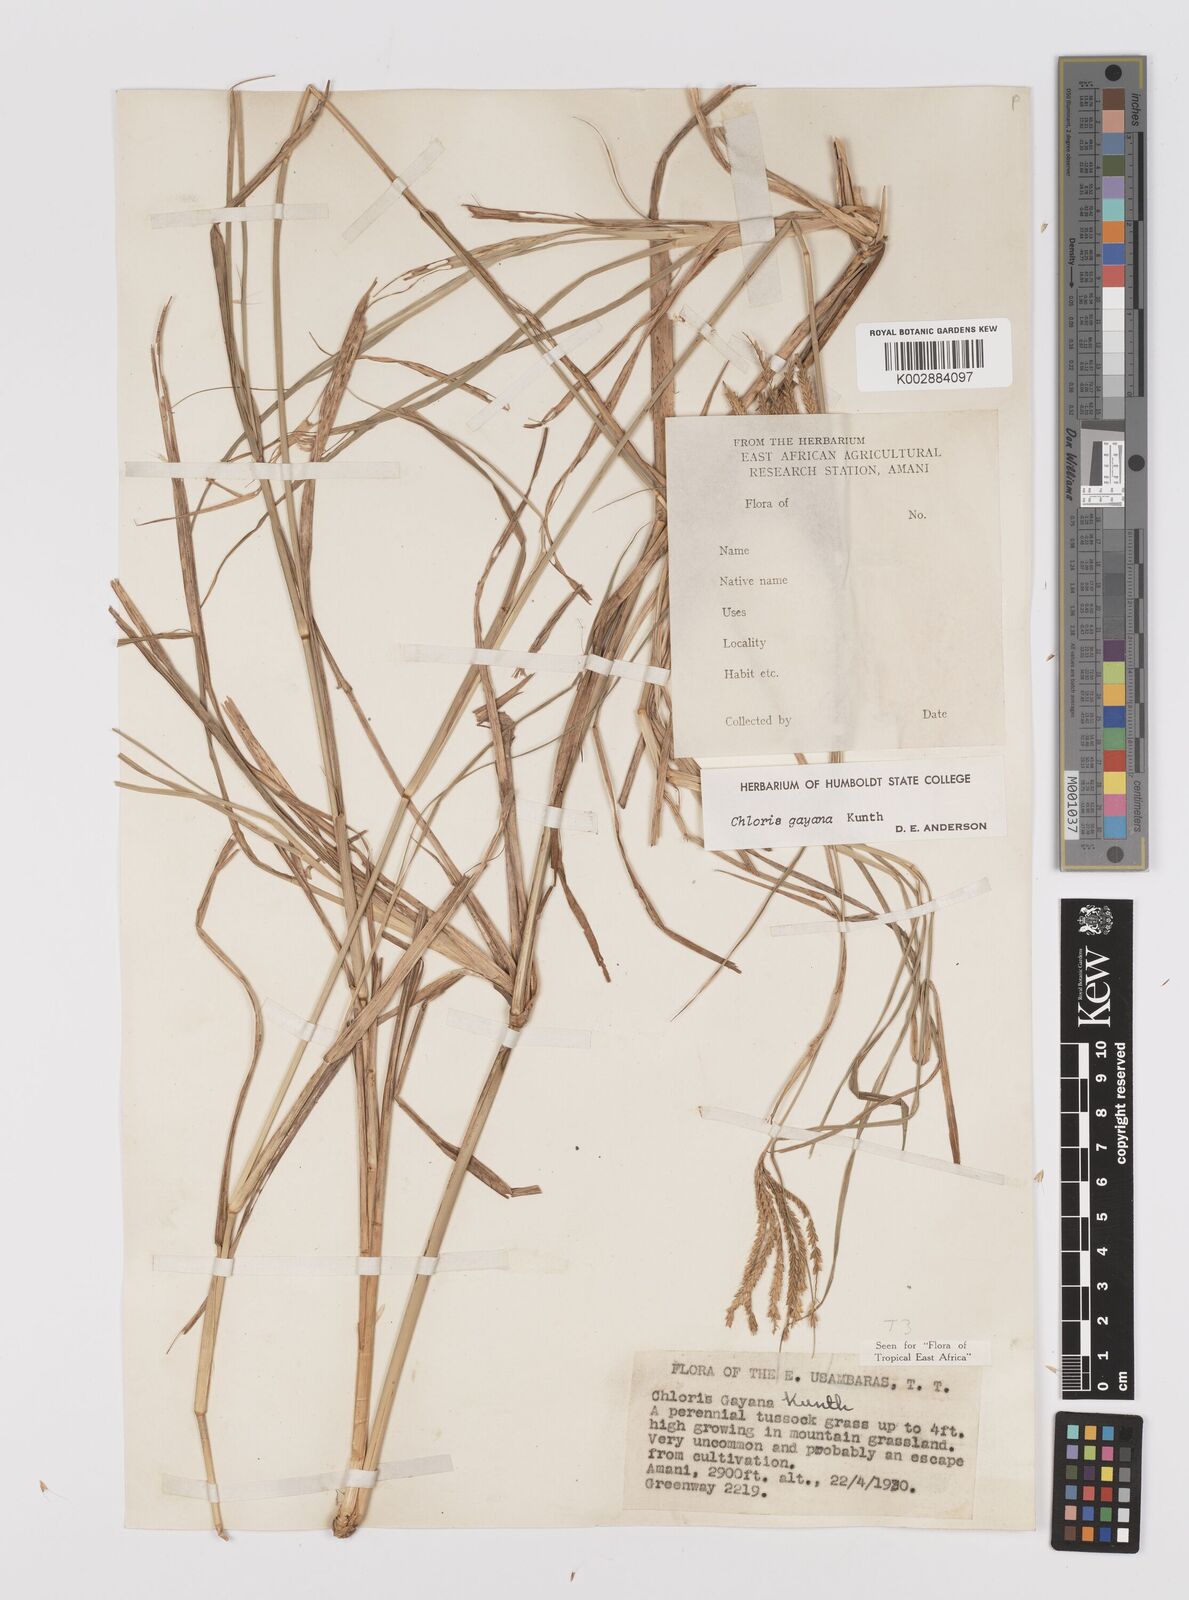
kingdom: Plantae
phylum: Tracheophyta
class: Liliopsida
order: Poales
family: Poaceae
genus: Chloris
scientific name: Chloris gayana
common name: Rhodes grass
